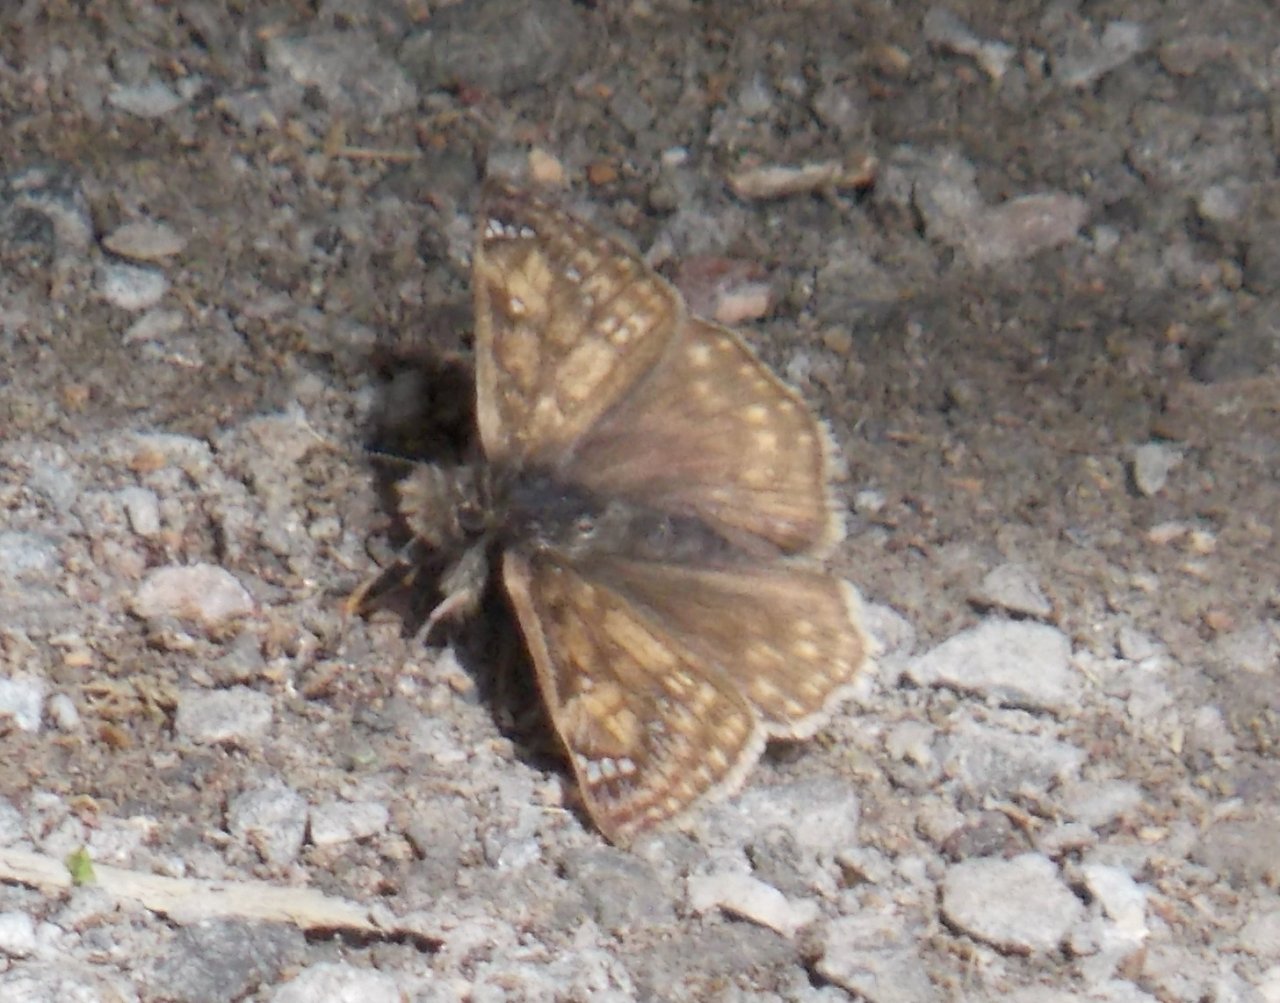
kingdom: Animalia
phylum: Arthropoda
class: Insecta
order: Lepidoptera
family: Hesperiidae
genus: Gesta
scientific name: Gesta
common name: Juvenal's Duskywing
